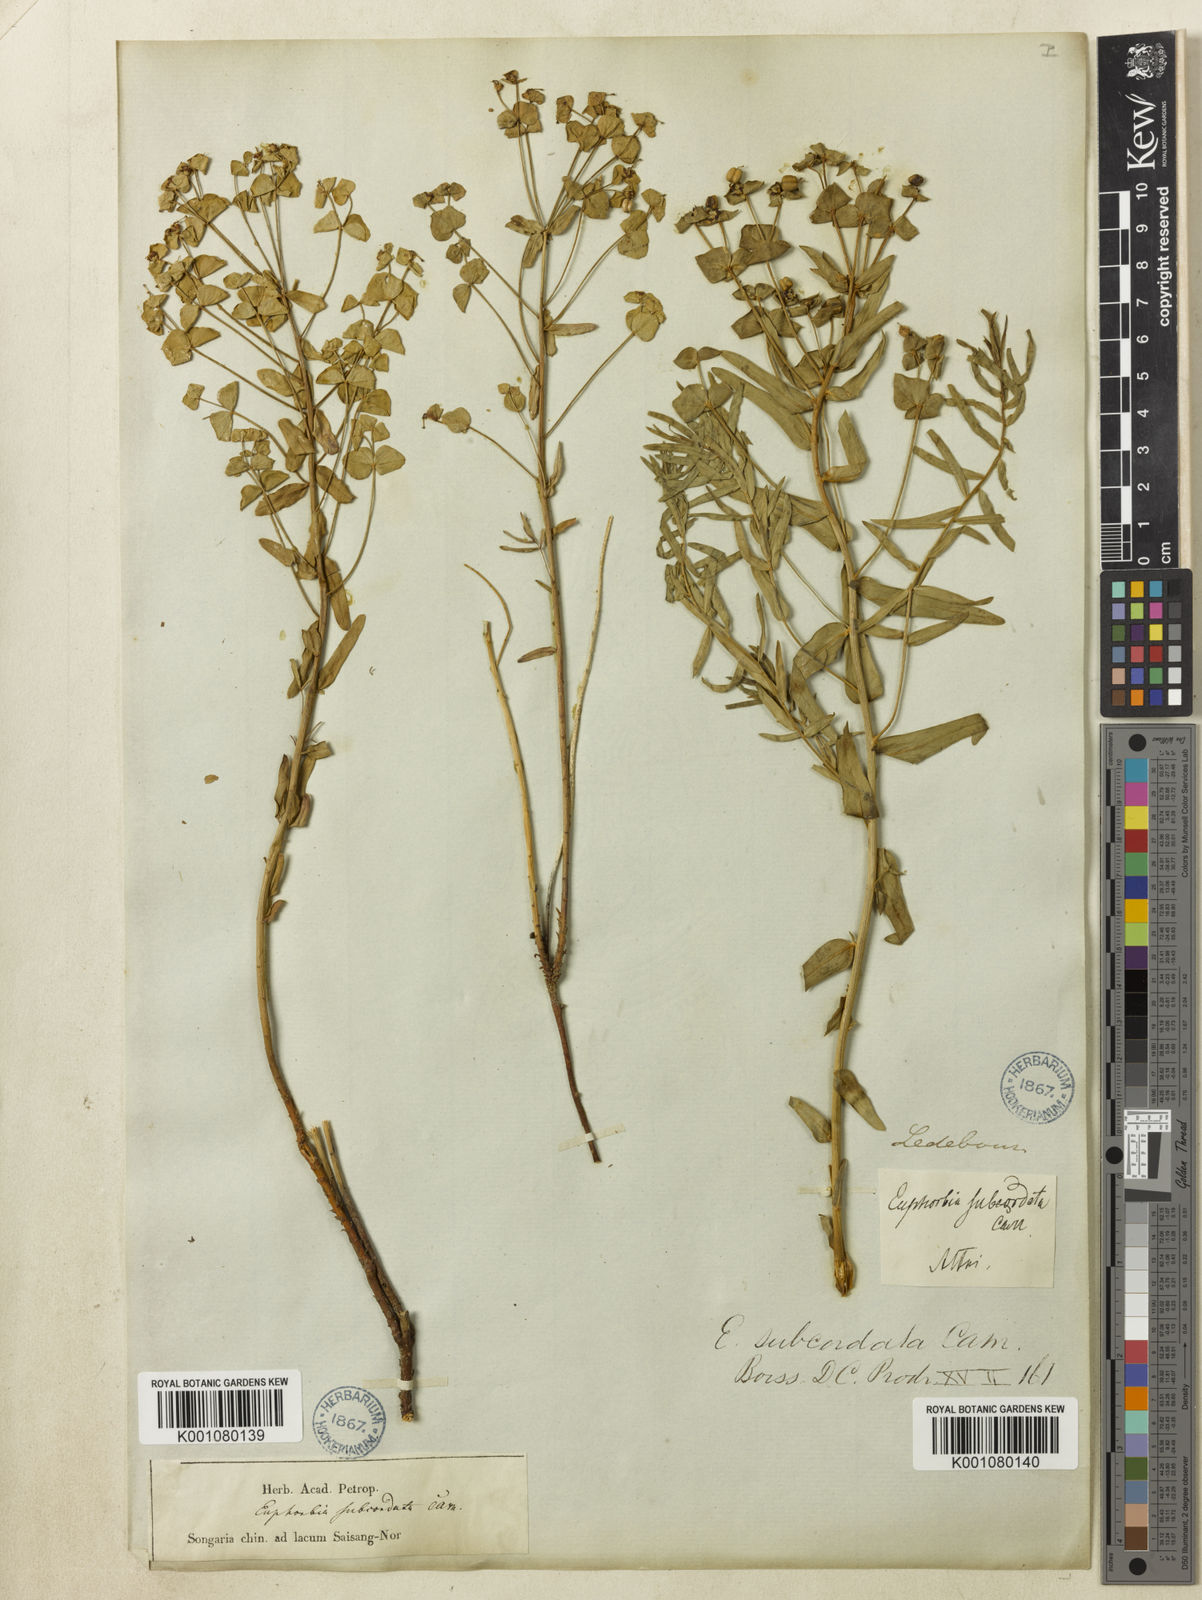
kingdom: Plantae
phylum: Tracheophyta
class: Magnoliopsida
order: Malpighiales
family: Euphorbiaceae
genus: Euphorbia
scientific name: Euphorbia
